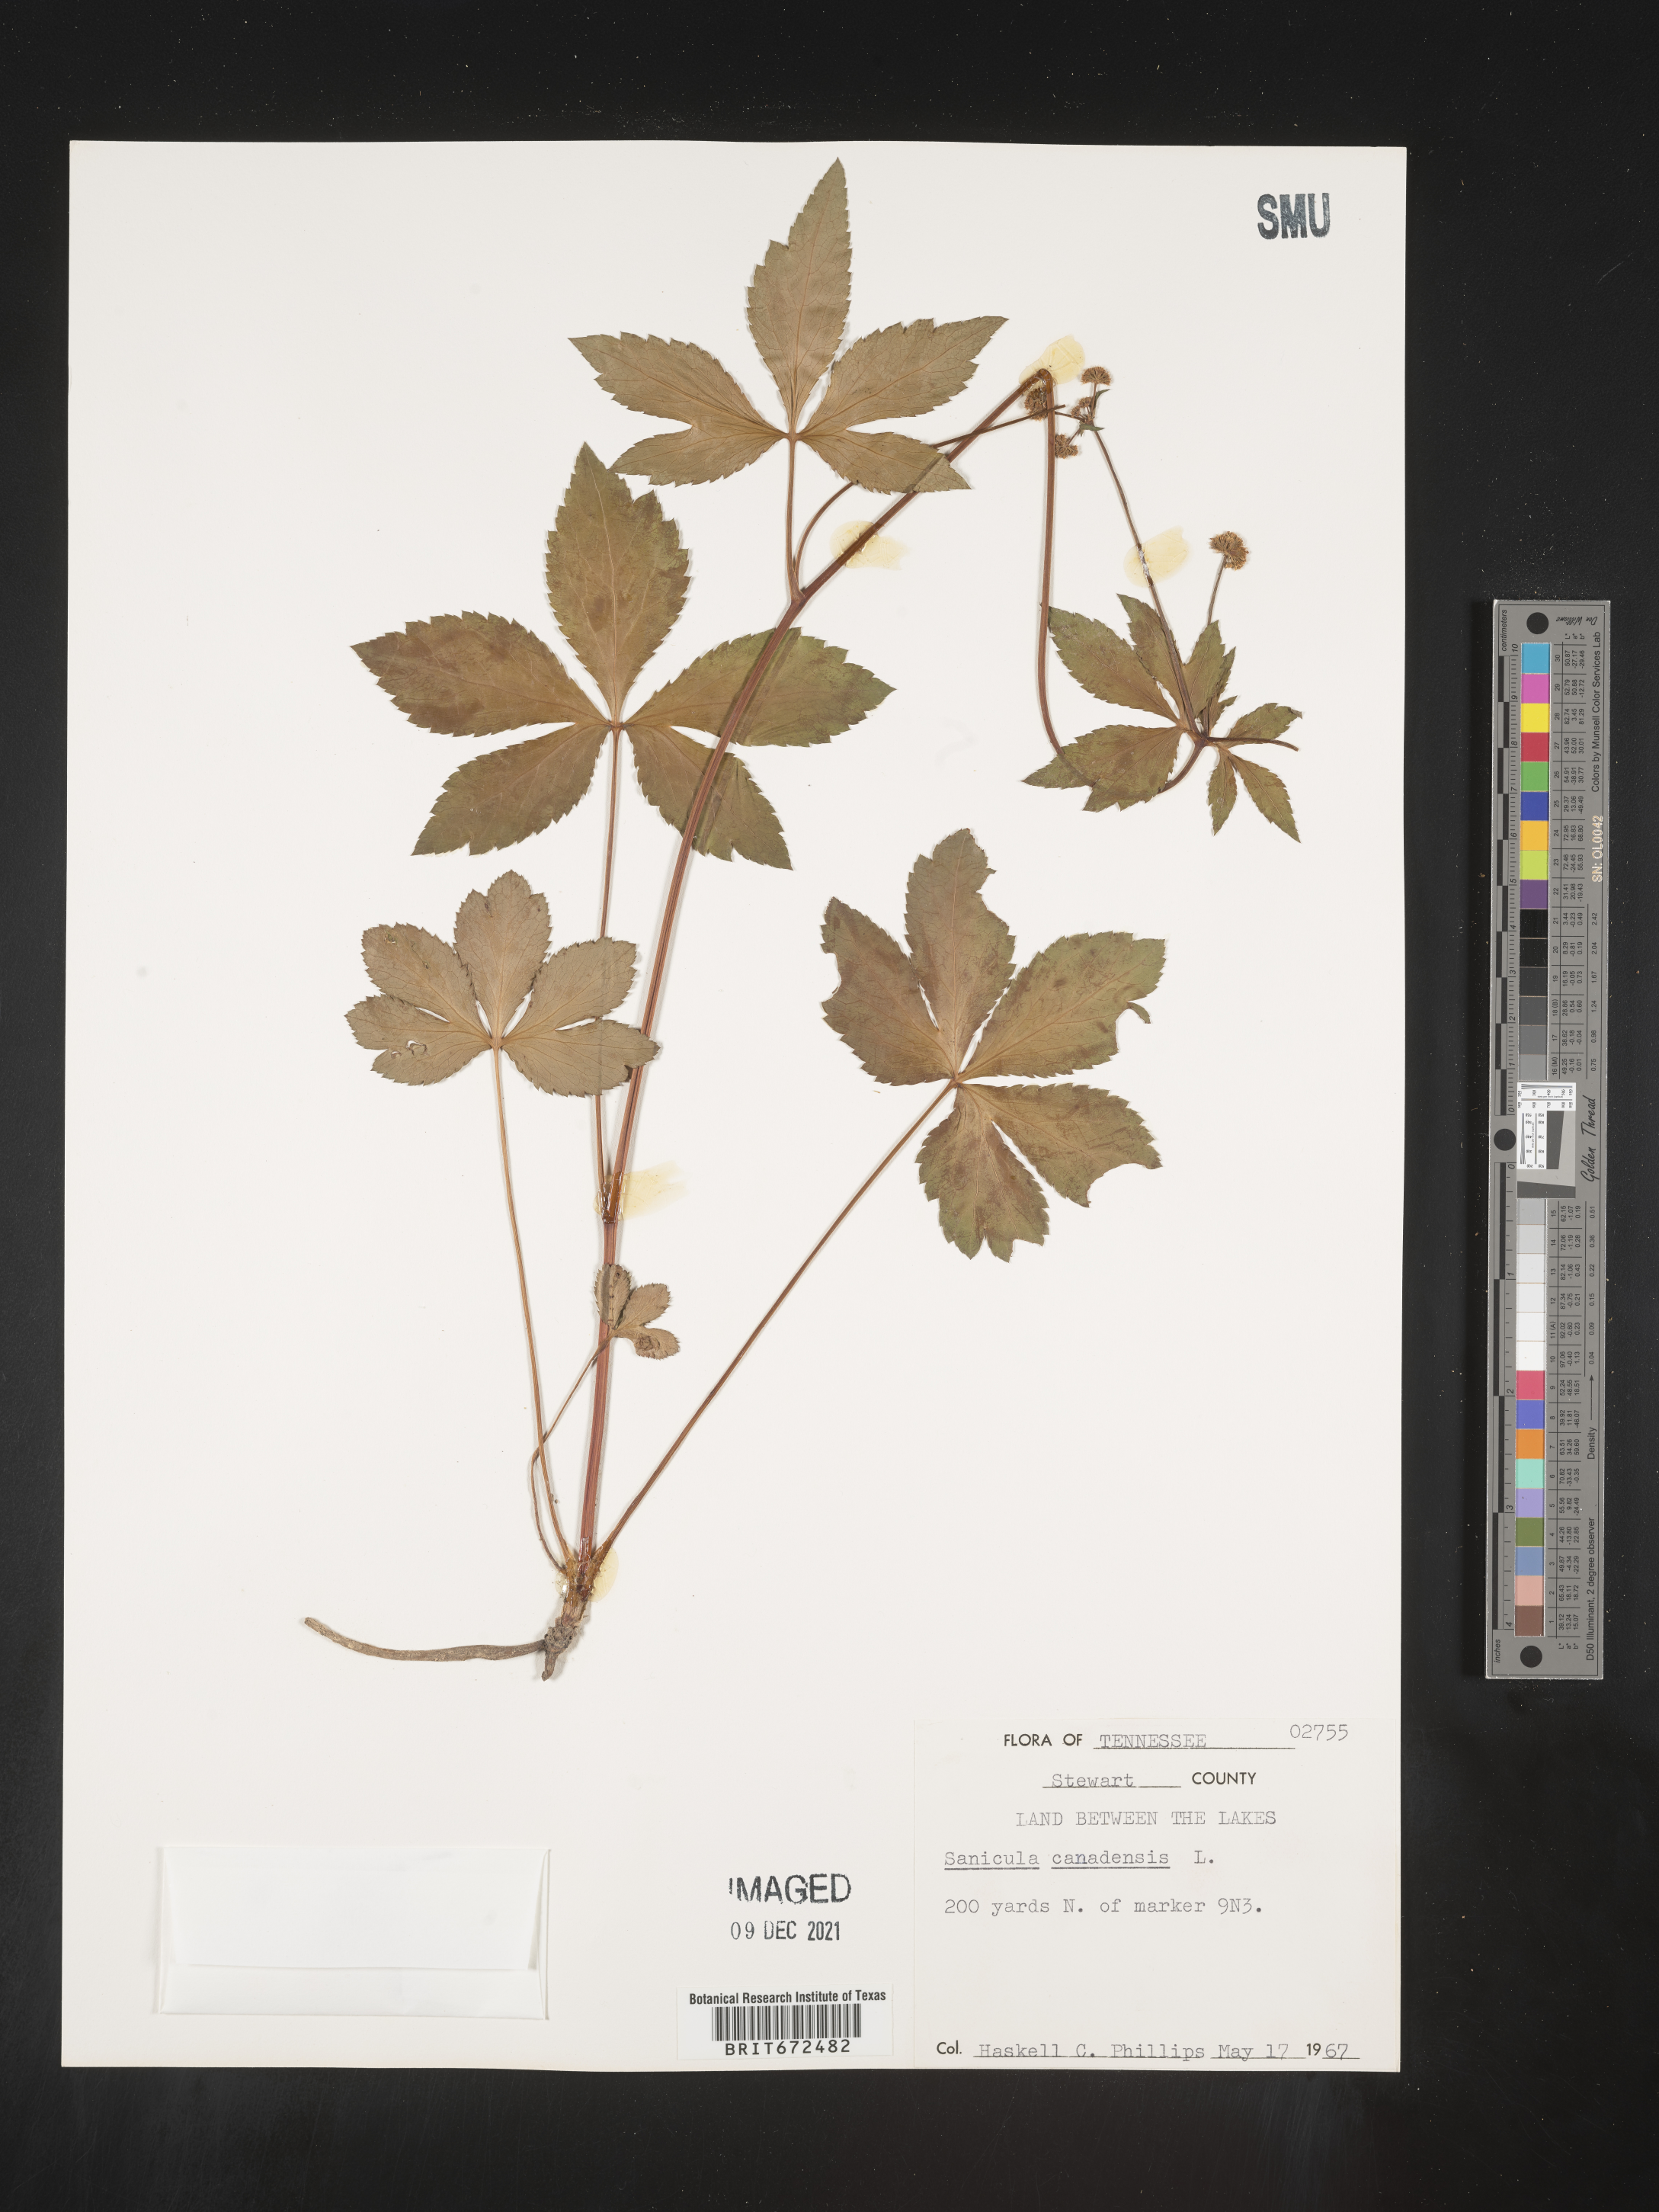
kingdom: Plantae
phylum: Tracheophyta
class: Magnoliopsida
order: Apiales
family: Apiaceae
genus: Sanicula
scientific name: Sanicula canadensis
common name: Canada sanicle
